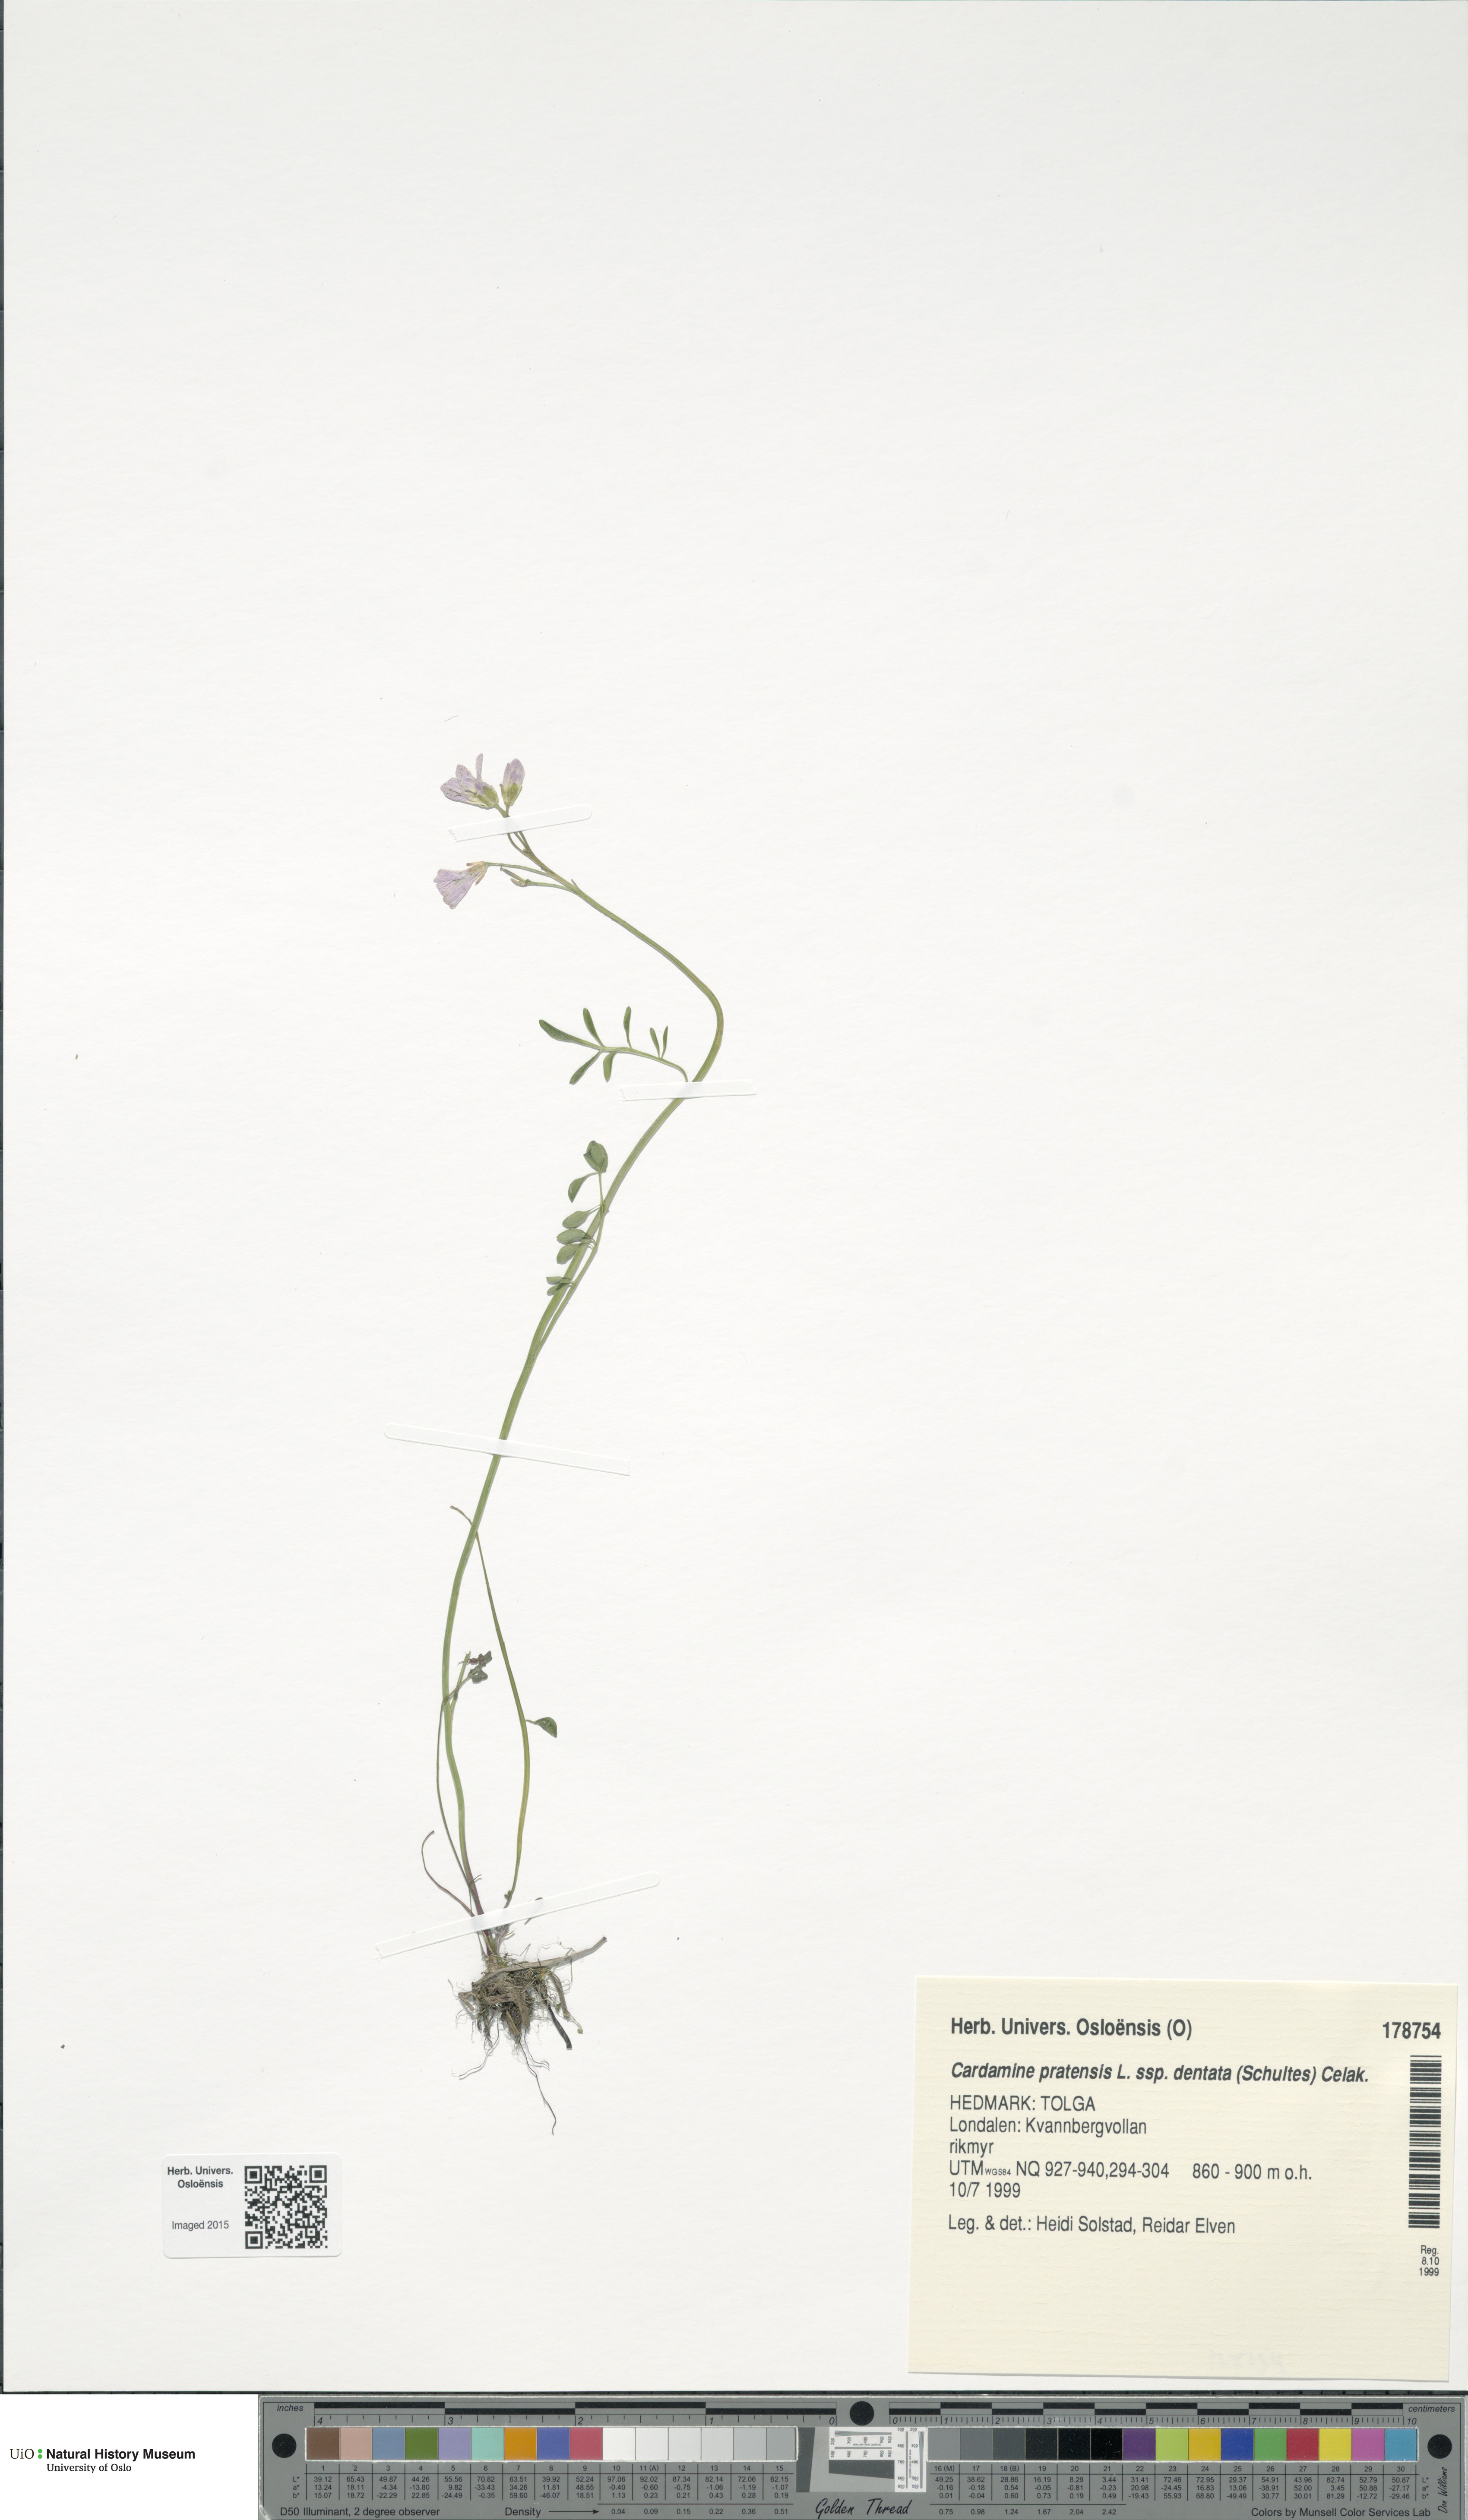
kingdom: Plantae
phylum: Tracheophyta
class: Magnoliopsida
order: Brassicales
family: Brassicaceae
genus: Cardamine
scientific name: Cardamine dentata
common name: Toothed bittercress
